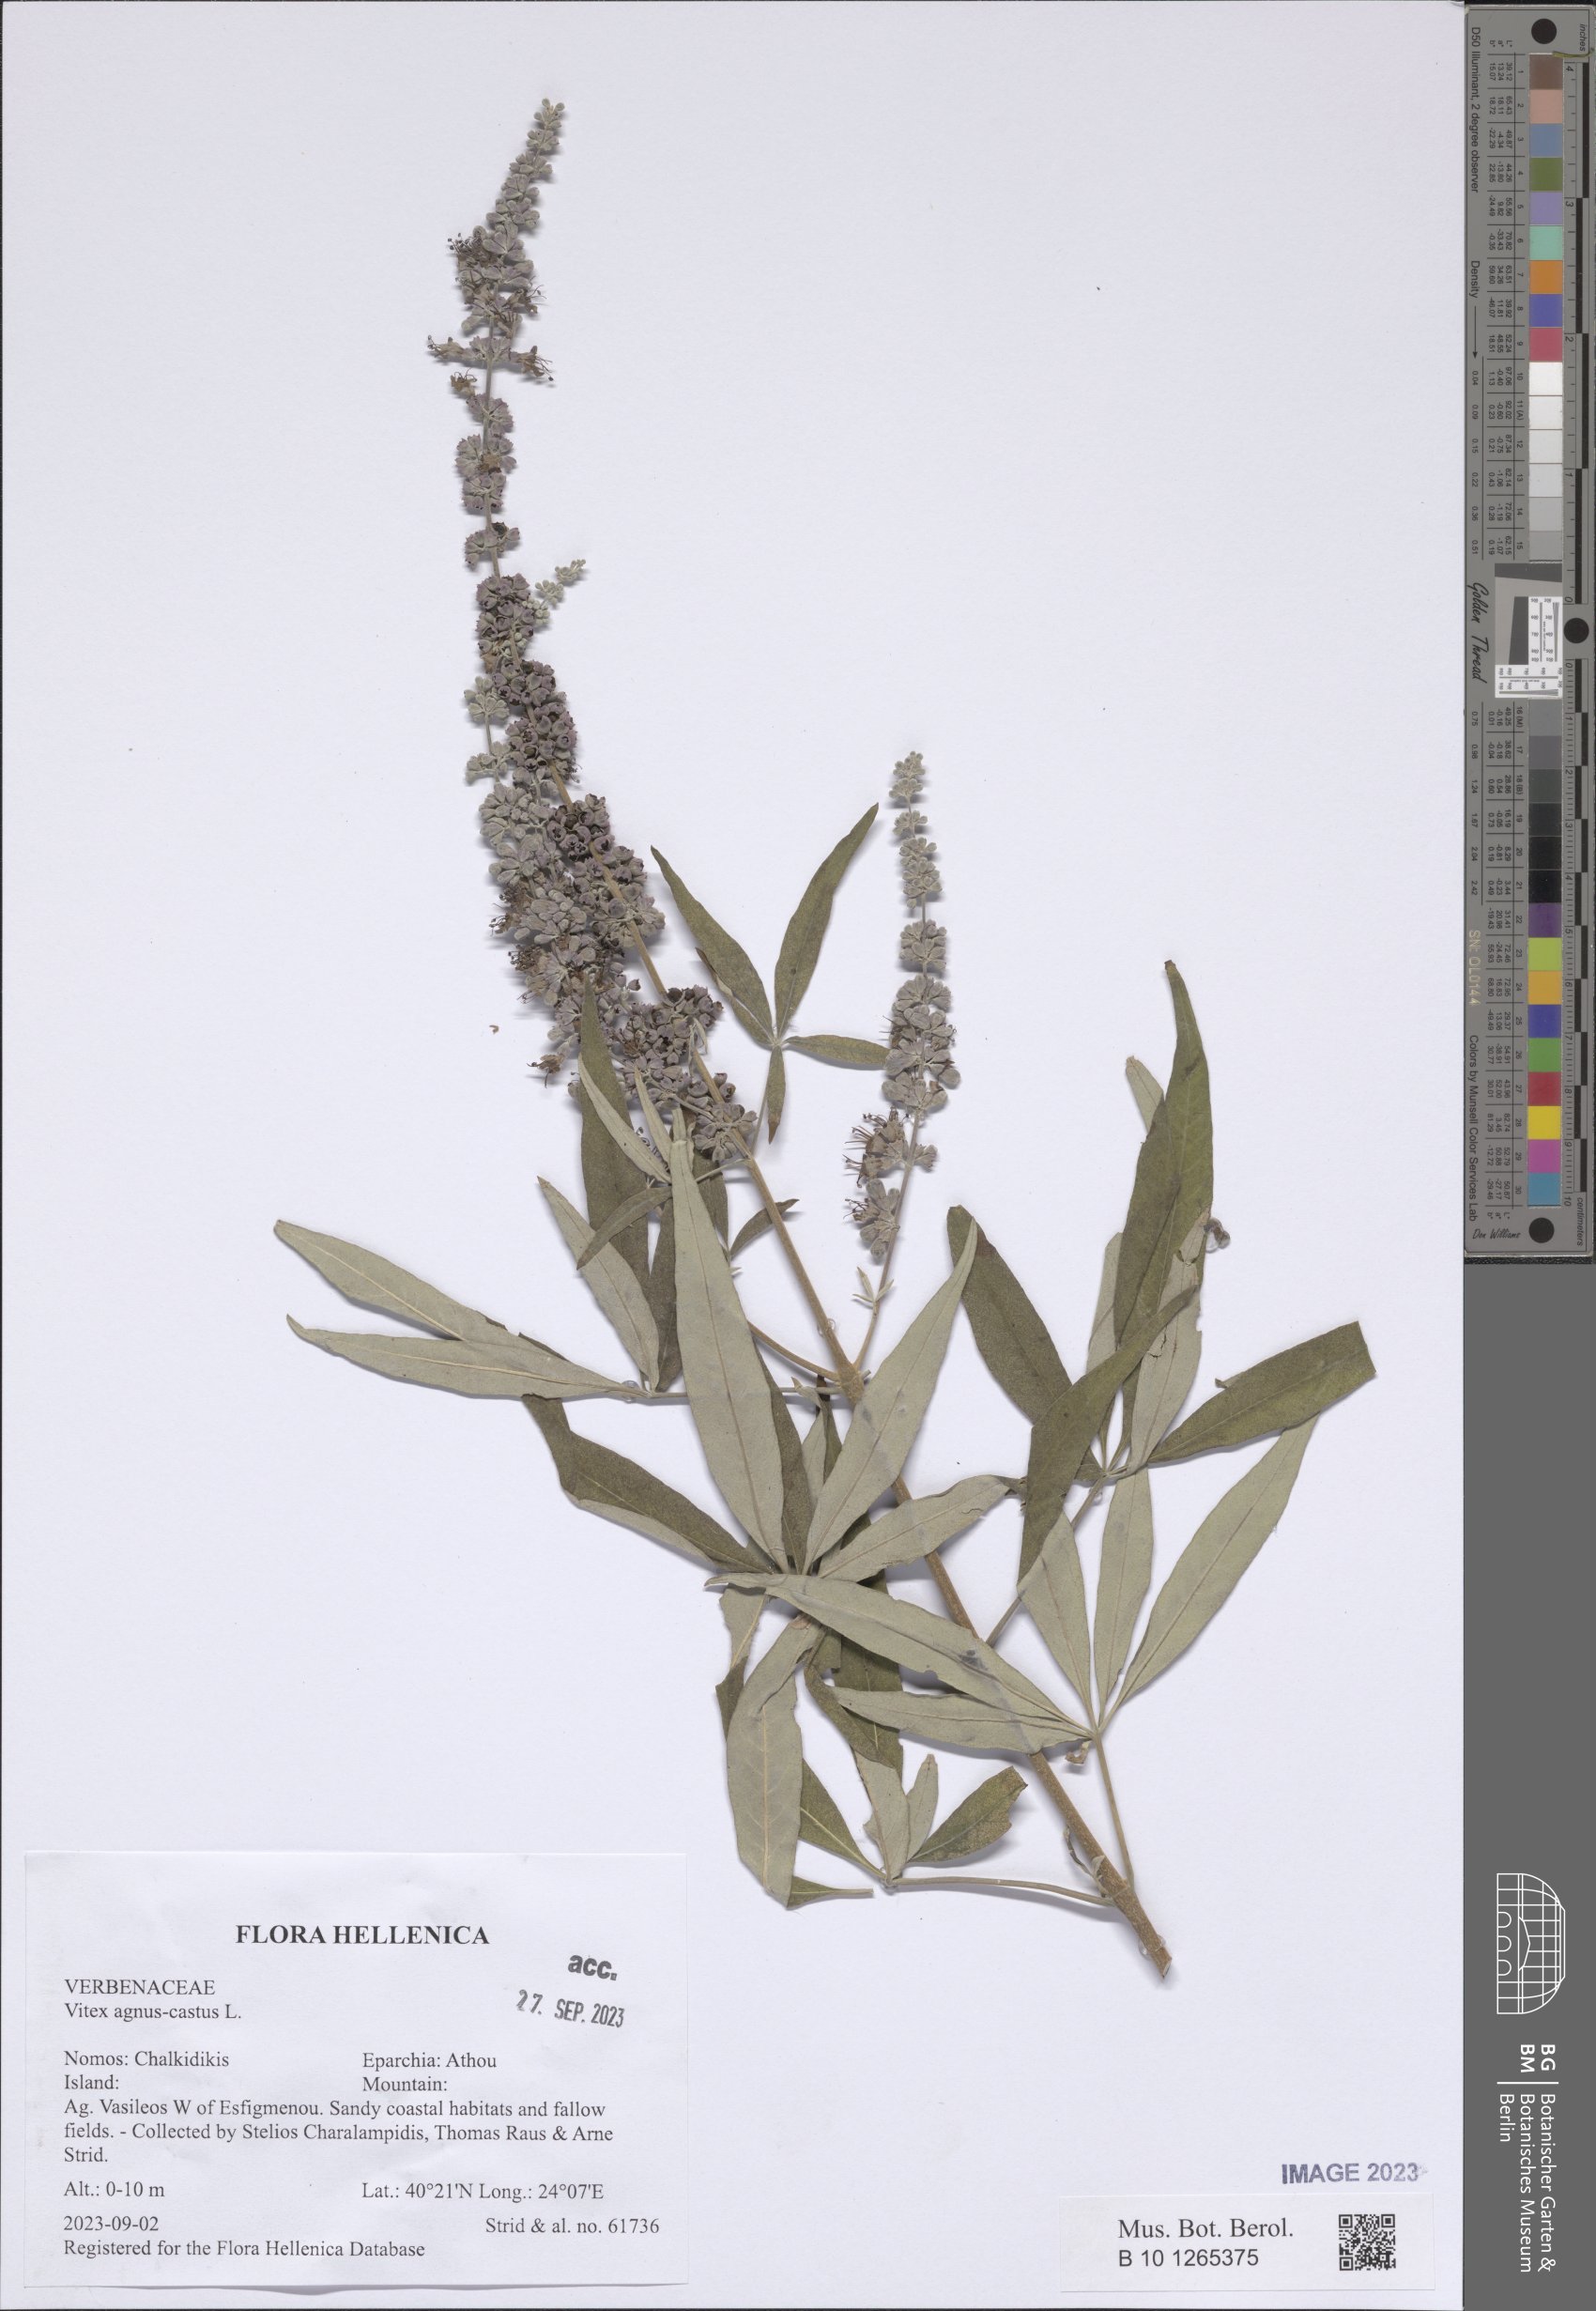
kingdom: Plantae
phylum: Tracheophyta
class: Magnoliopsida
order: Lamiales
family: Lamiaceae
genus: Vitex
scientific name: Vitex agnus-castus
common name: Chasteberry
